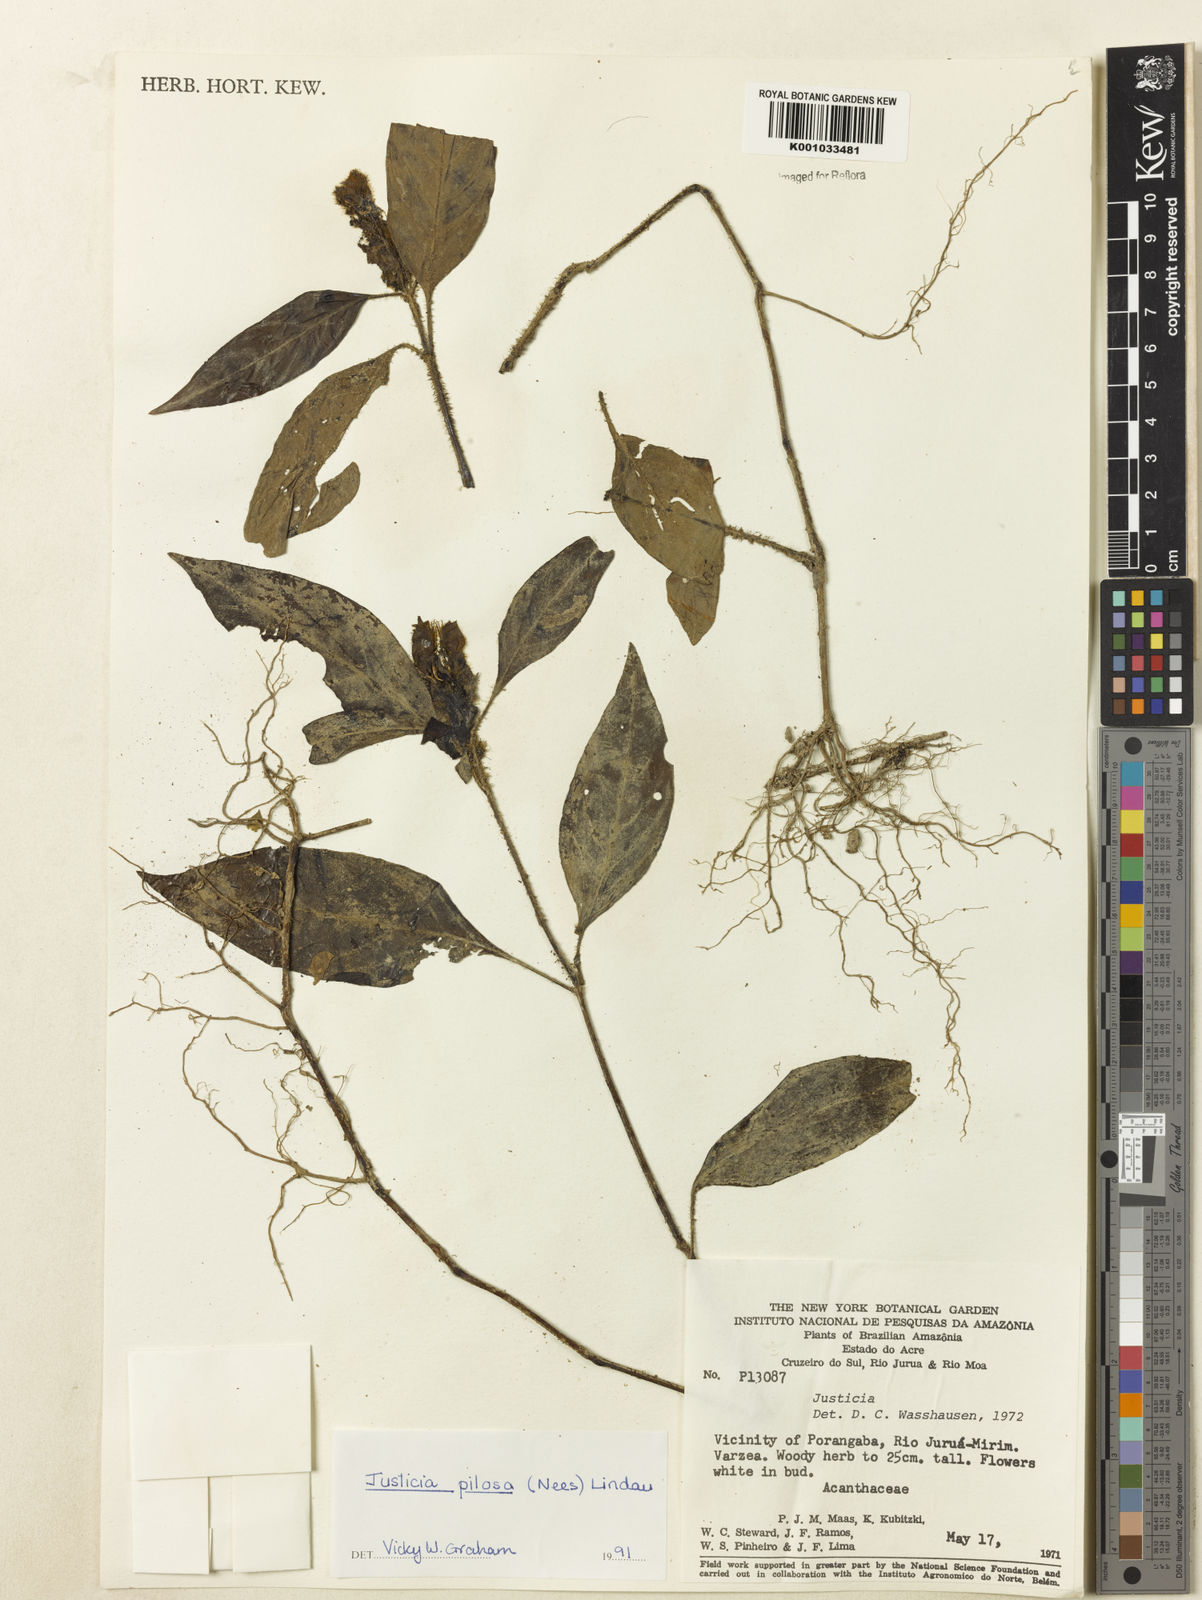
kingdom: Plantae
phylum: Tracheophyta
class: Magnoliopsida
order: Lamiales
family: Acanthaceae
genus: Justicia
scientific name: Justicia pilosa
